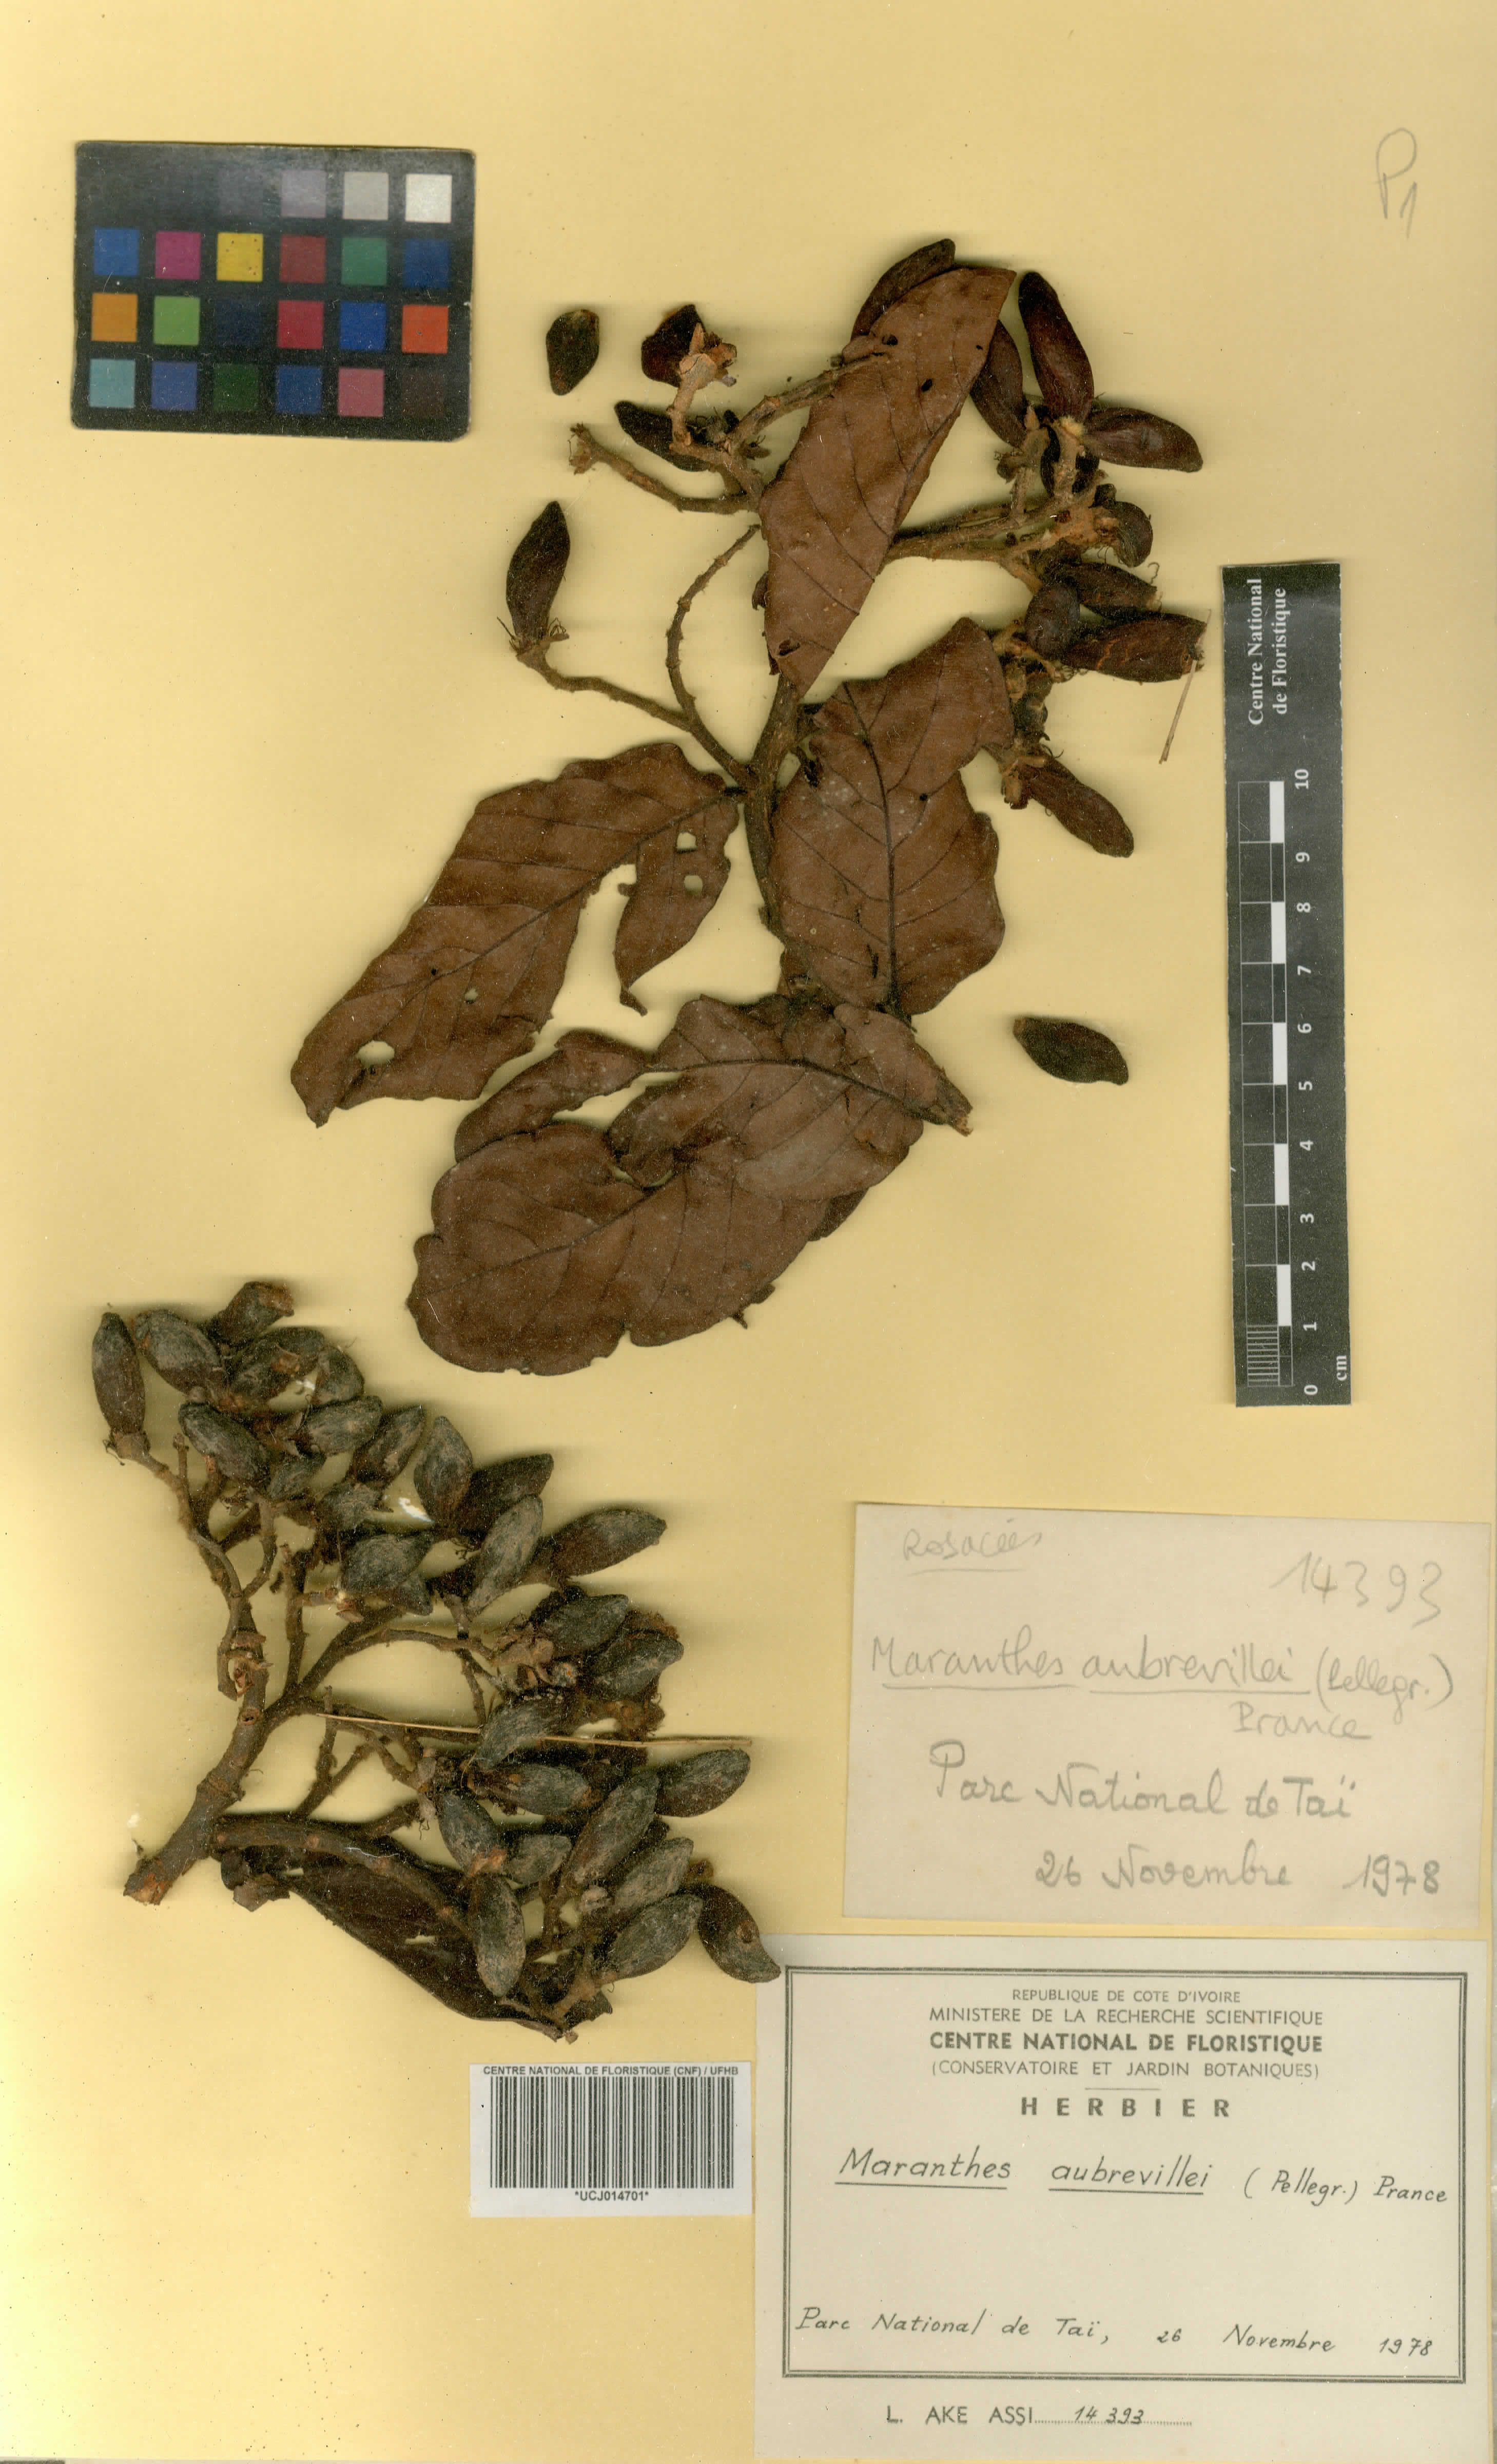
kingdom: Plantae
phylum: Tracheophyta
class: Magnoliopsida
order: Malpighiales
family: Chrysobalanaceae
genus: Maranthes
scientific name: Maranthes aubrevillei
